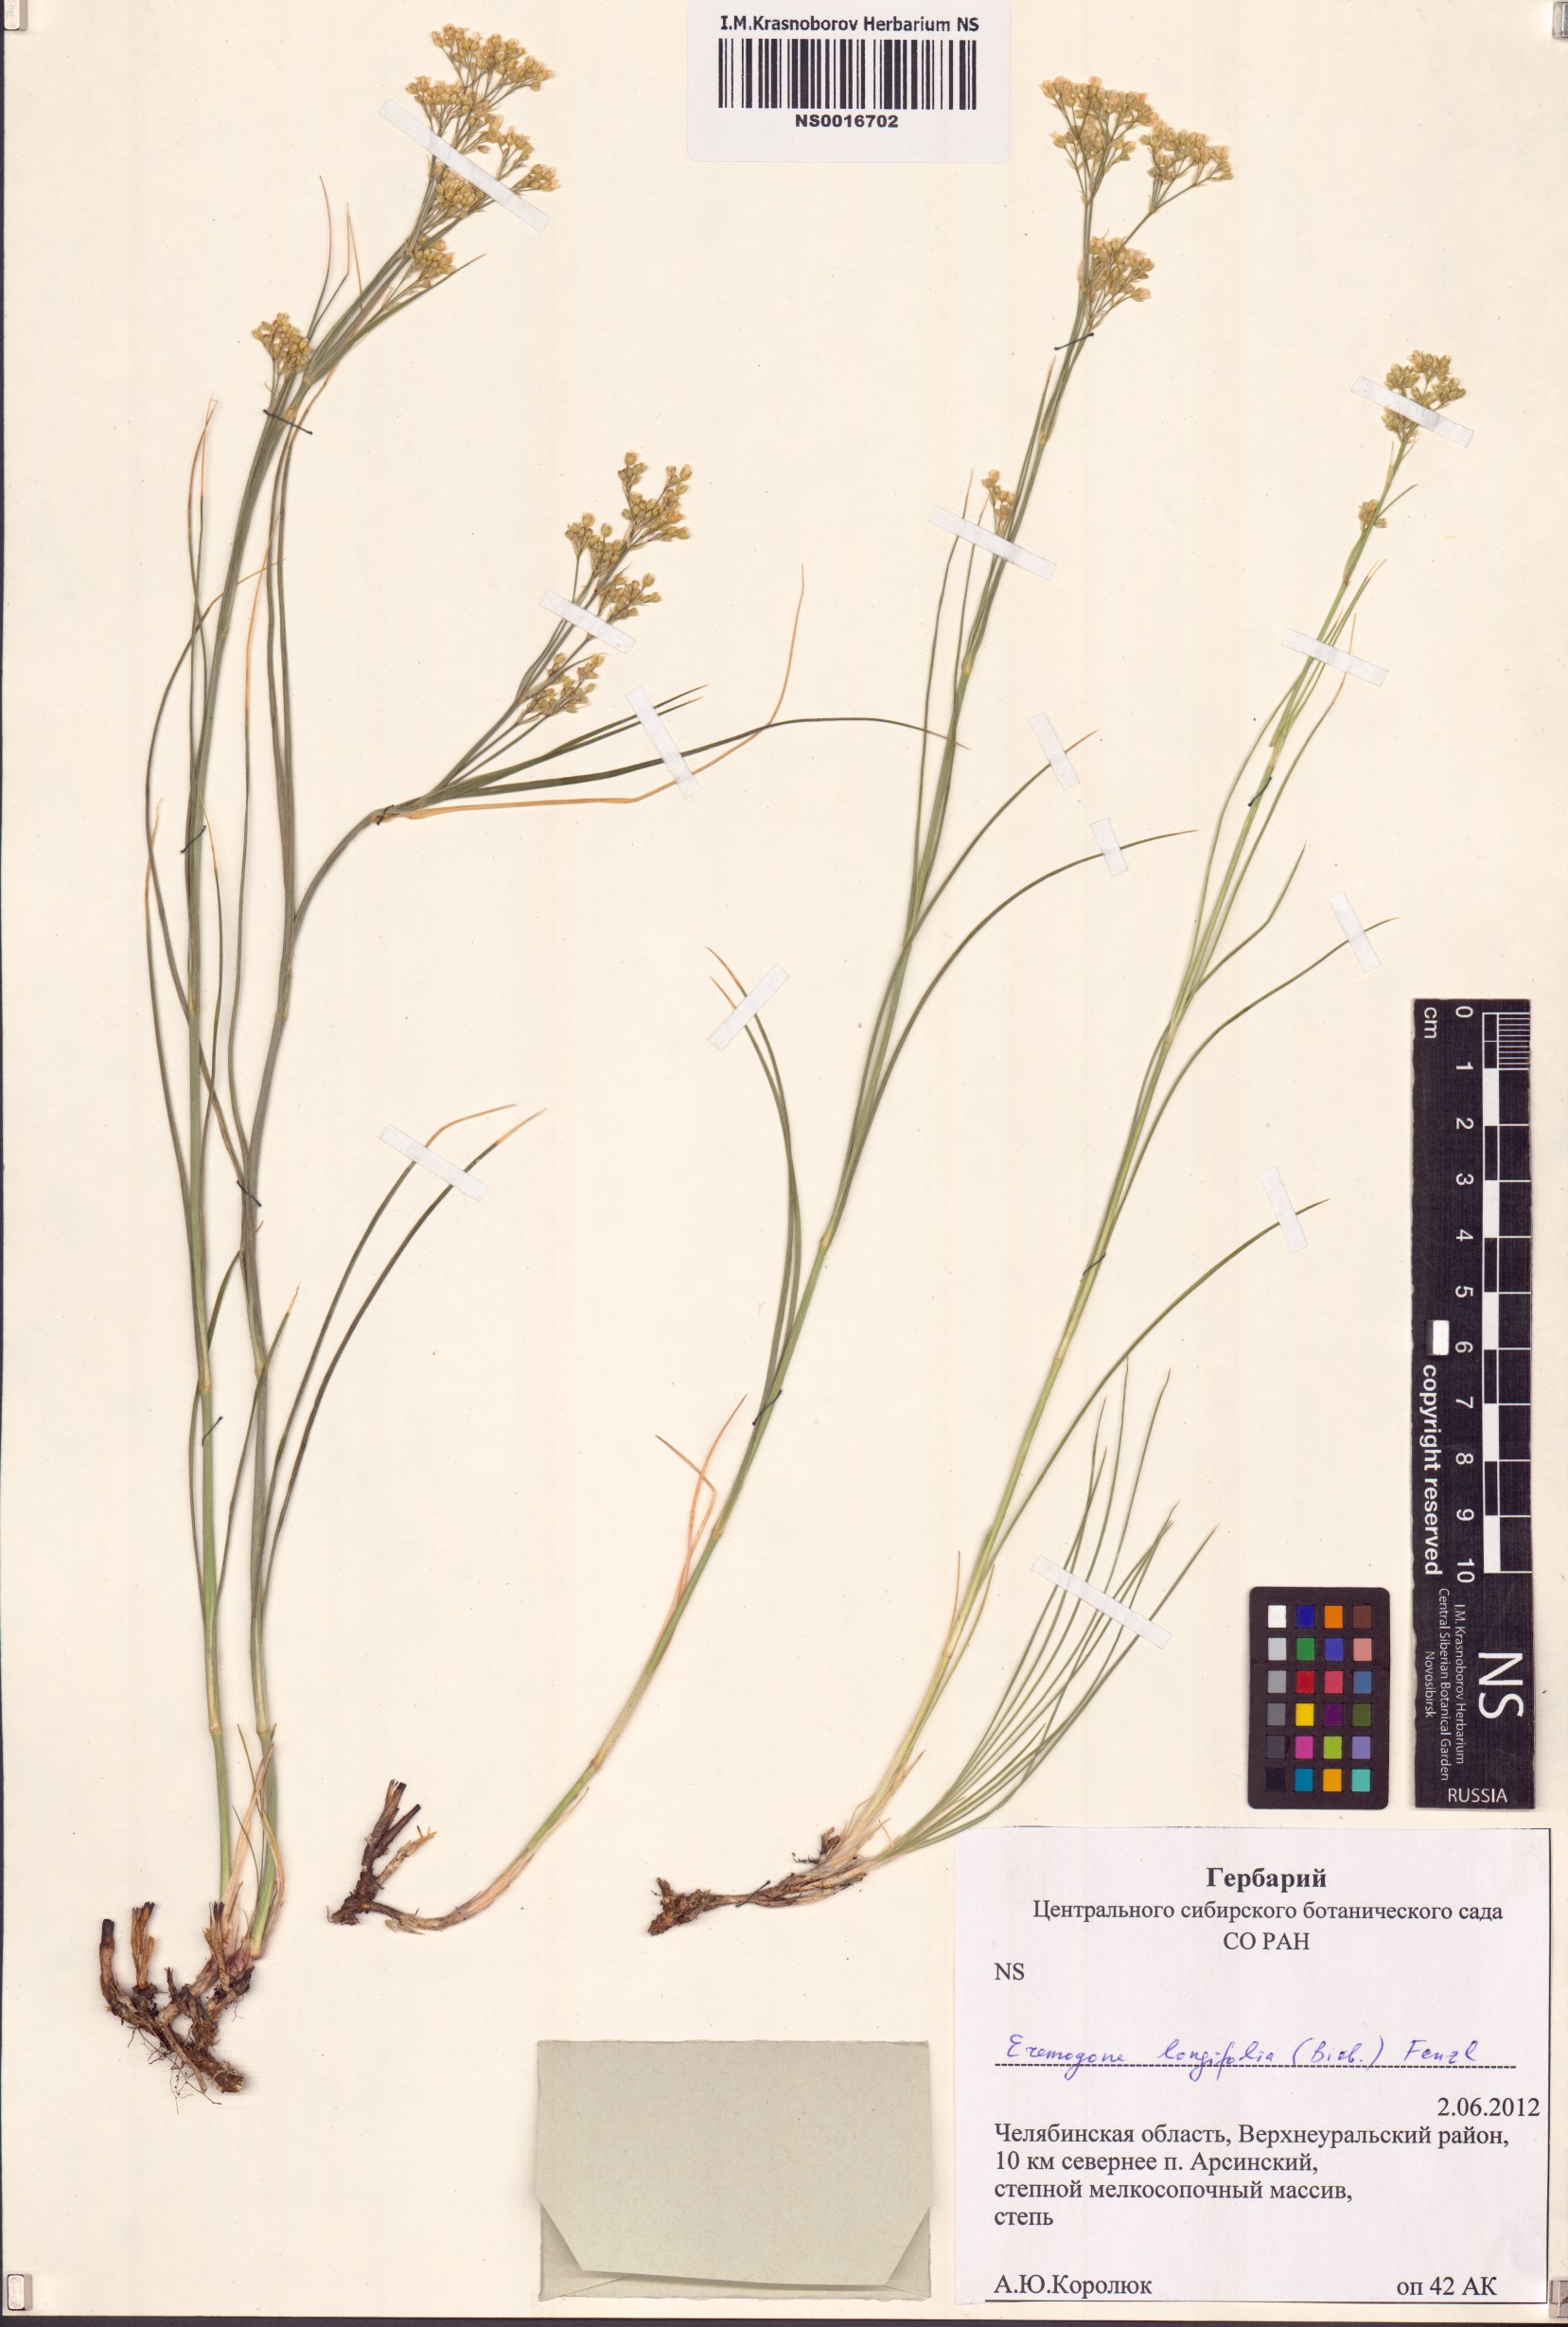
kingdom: Plantae
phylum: Tracheophyta
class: Magnoliopsida
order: Caryophyllales
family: Caryophyllaceae
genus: Eremogone
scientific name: Eremogone longifolia
